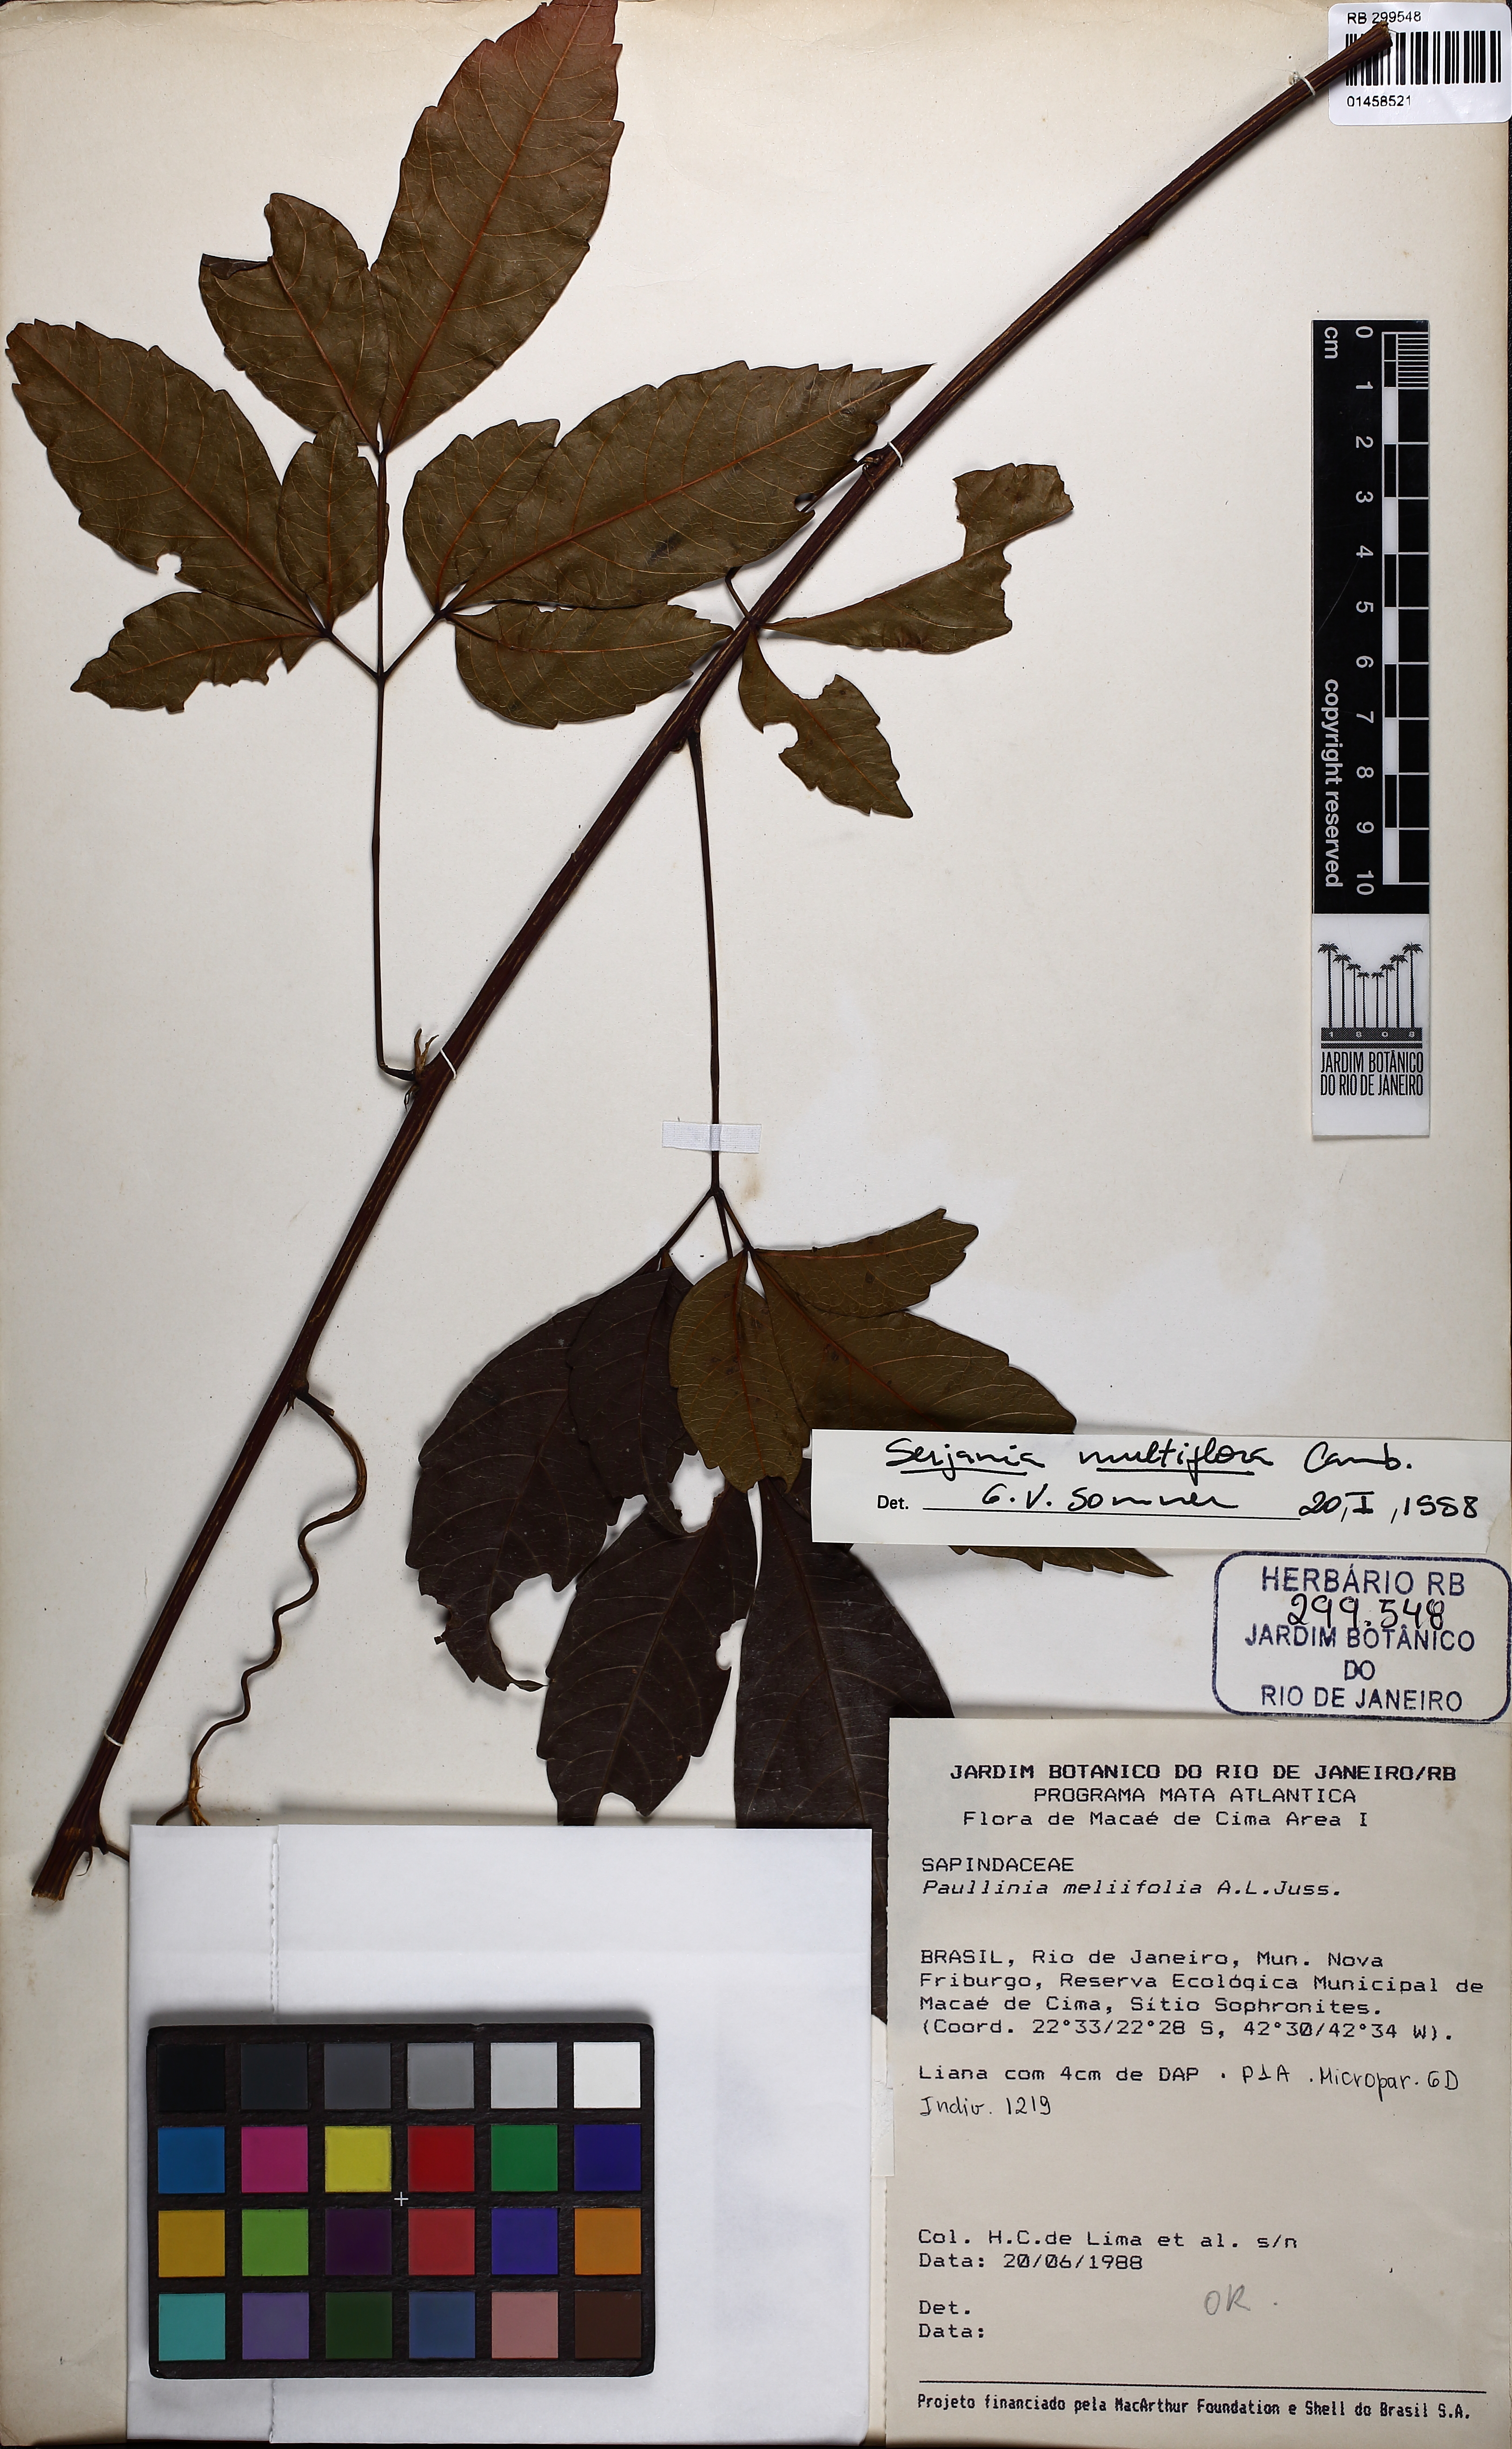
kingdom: Plantae
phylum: Tracheophyta
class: Magnoliopsida
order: Sapindales
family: Sapindaceae
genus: Serjania
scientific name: Serjania multiflora
